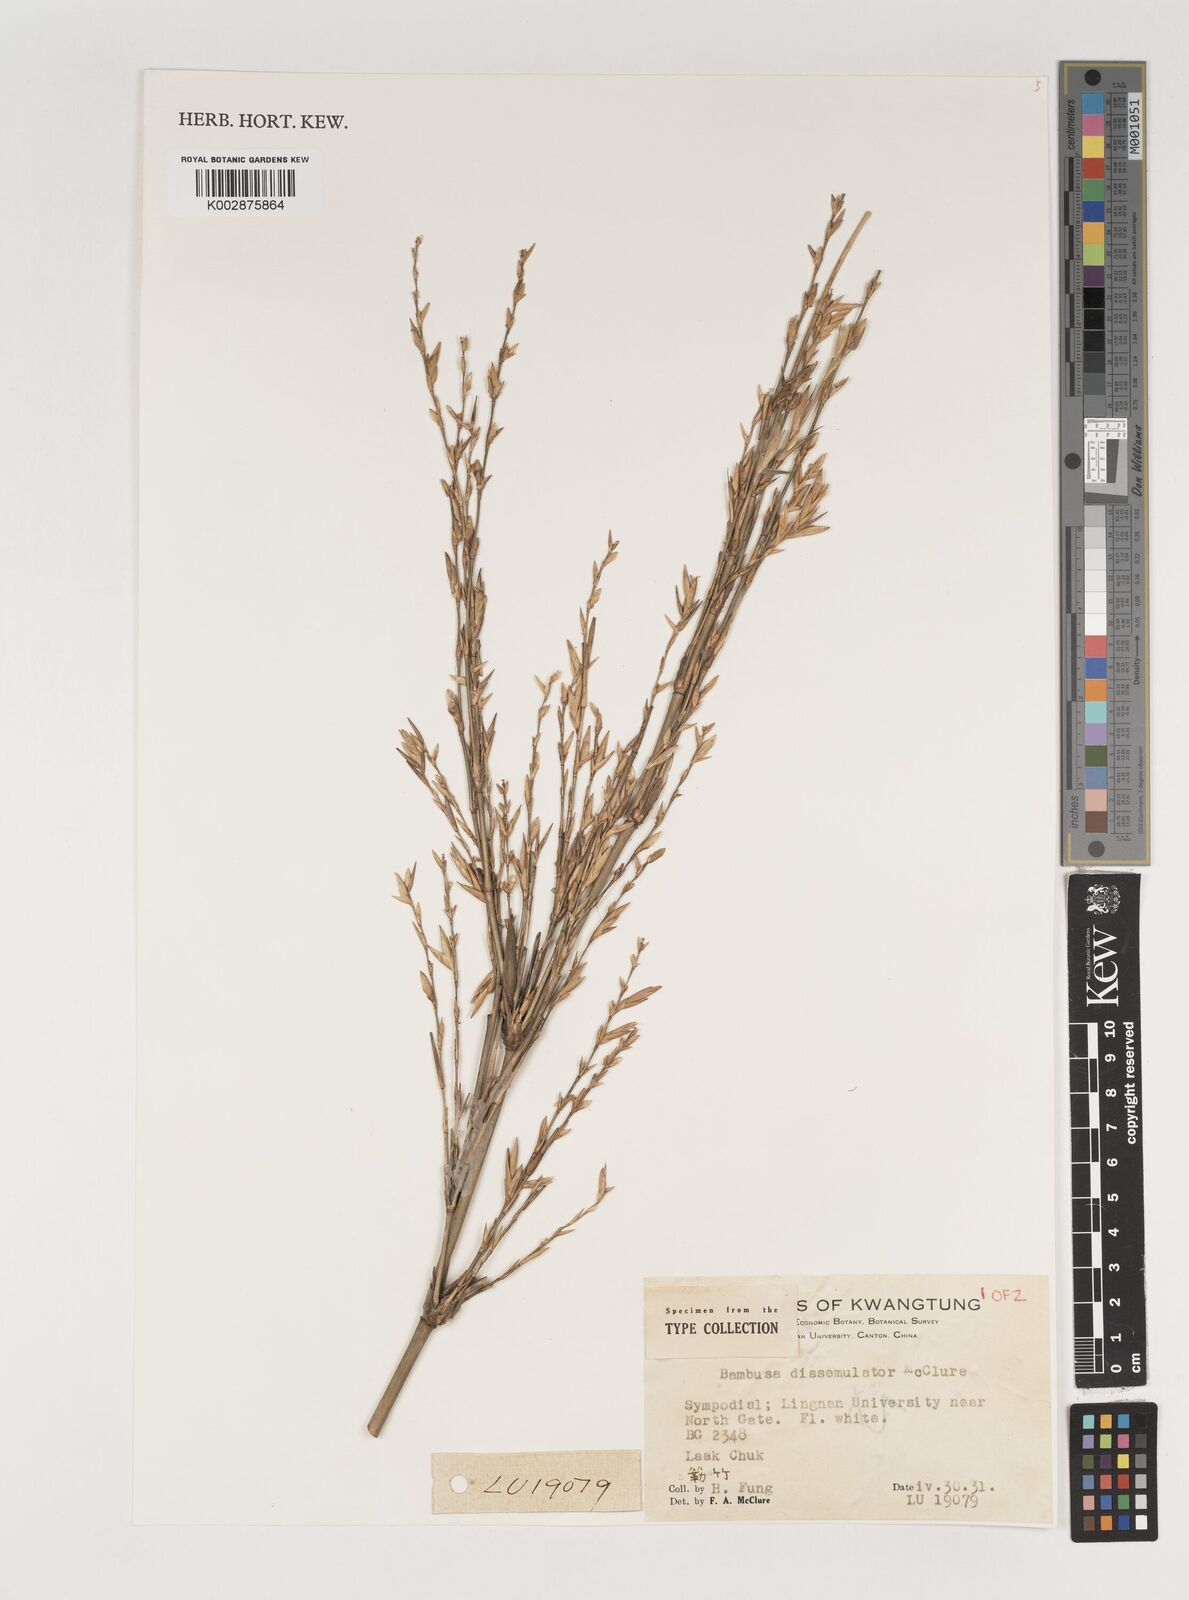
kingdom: Plantae
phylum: Tracheophyta
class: Liliopsida
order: Poales
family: Poaceae
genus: Bambusa
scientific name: Bambusa dissimulator
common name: Muddy bamboo
